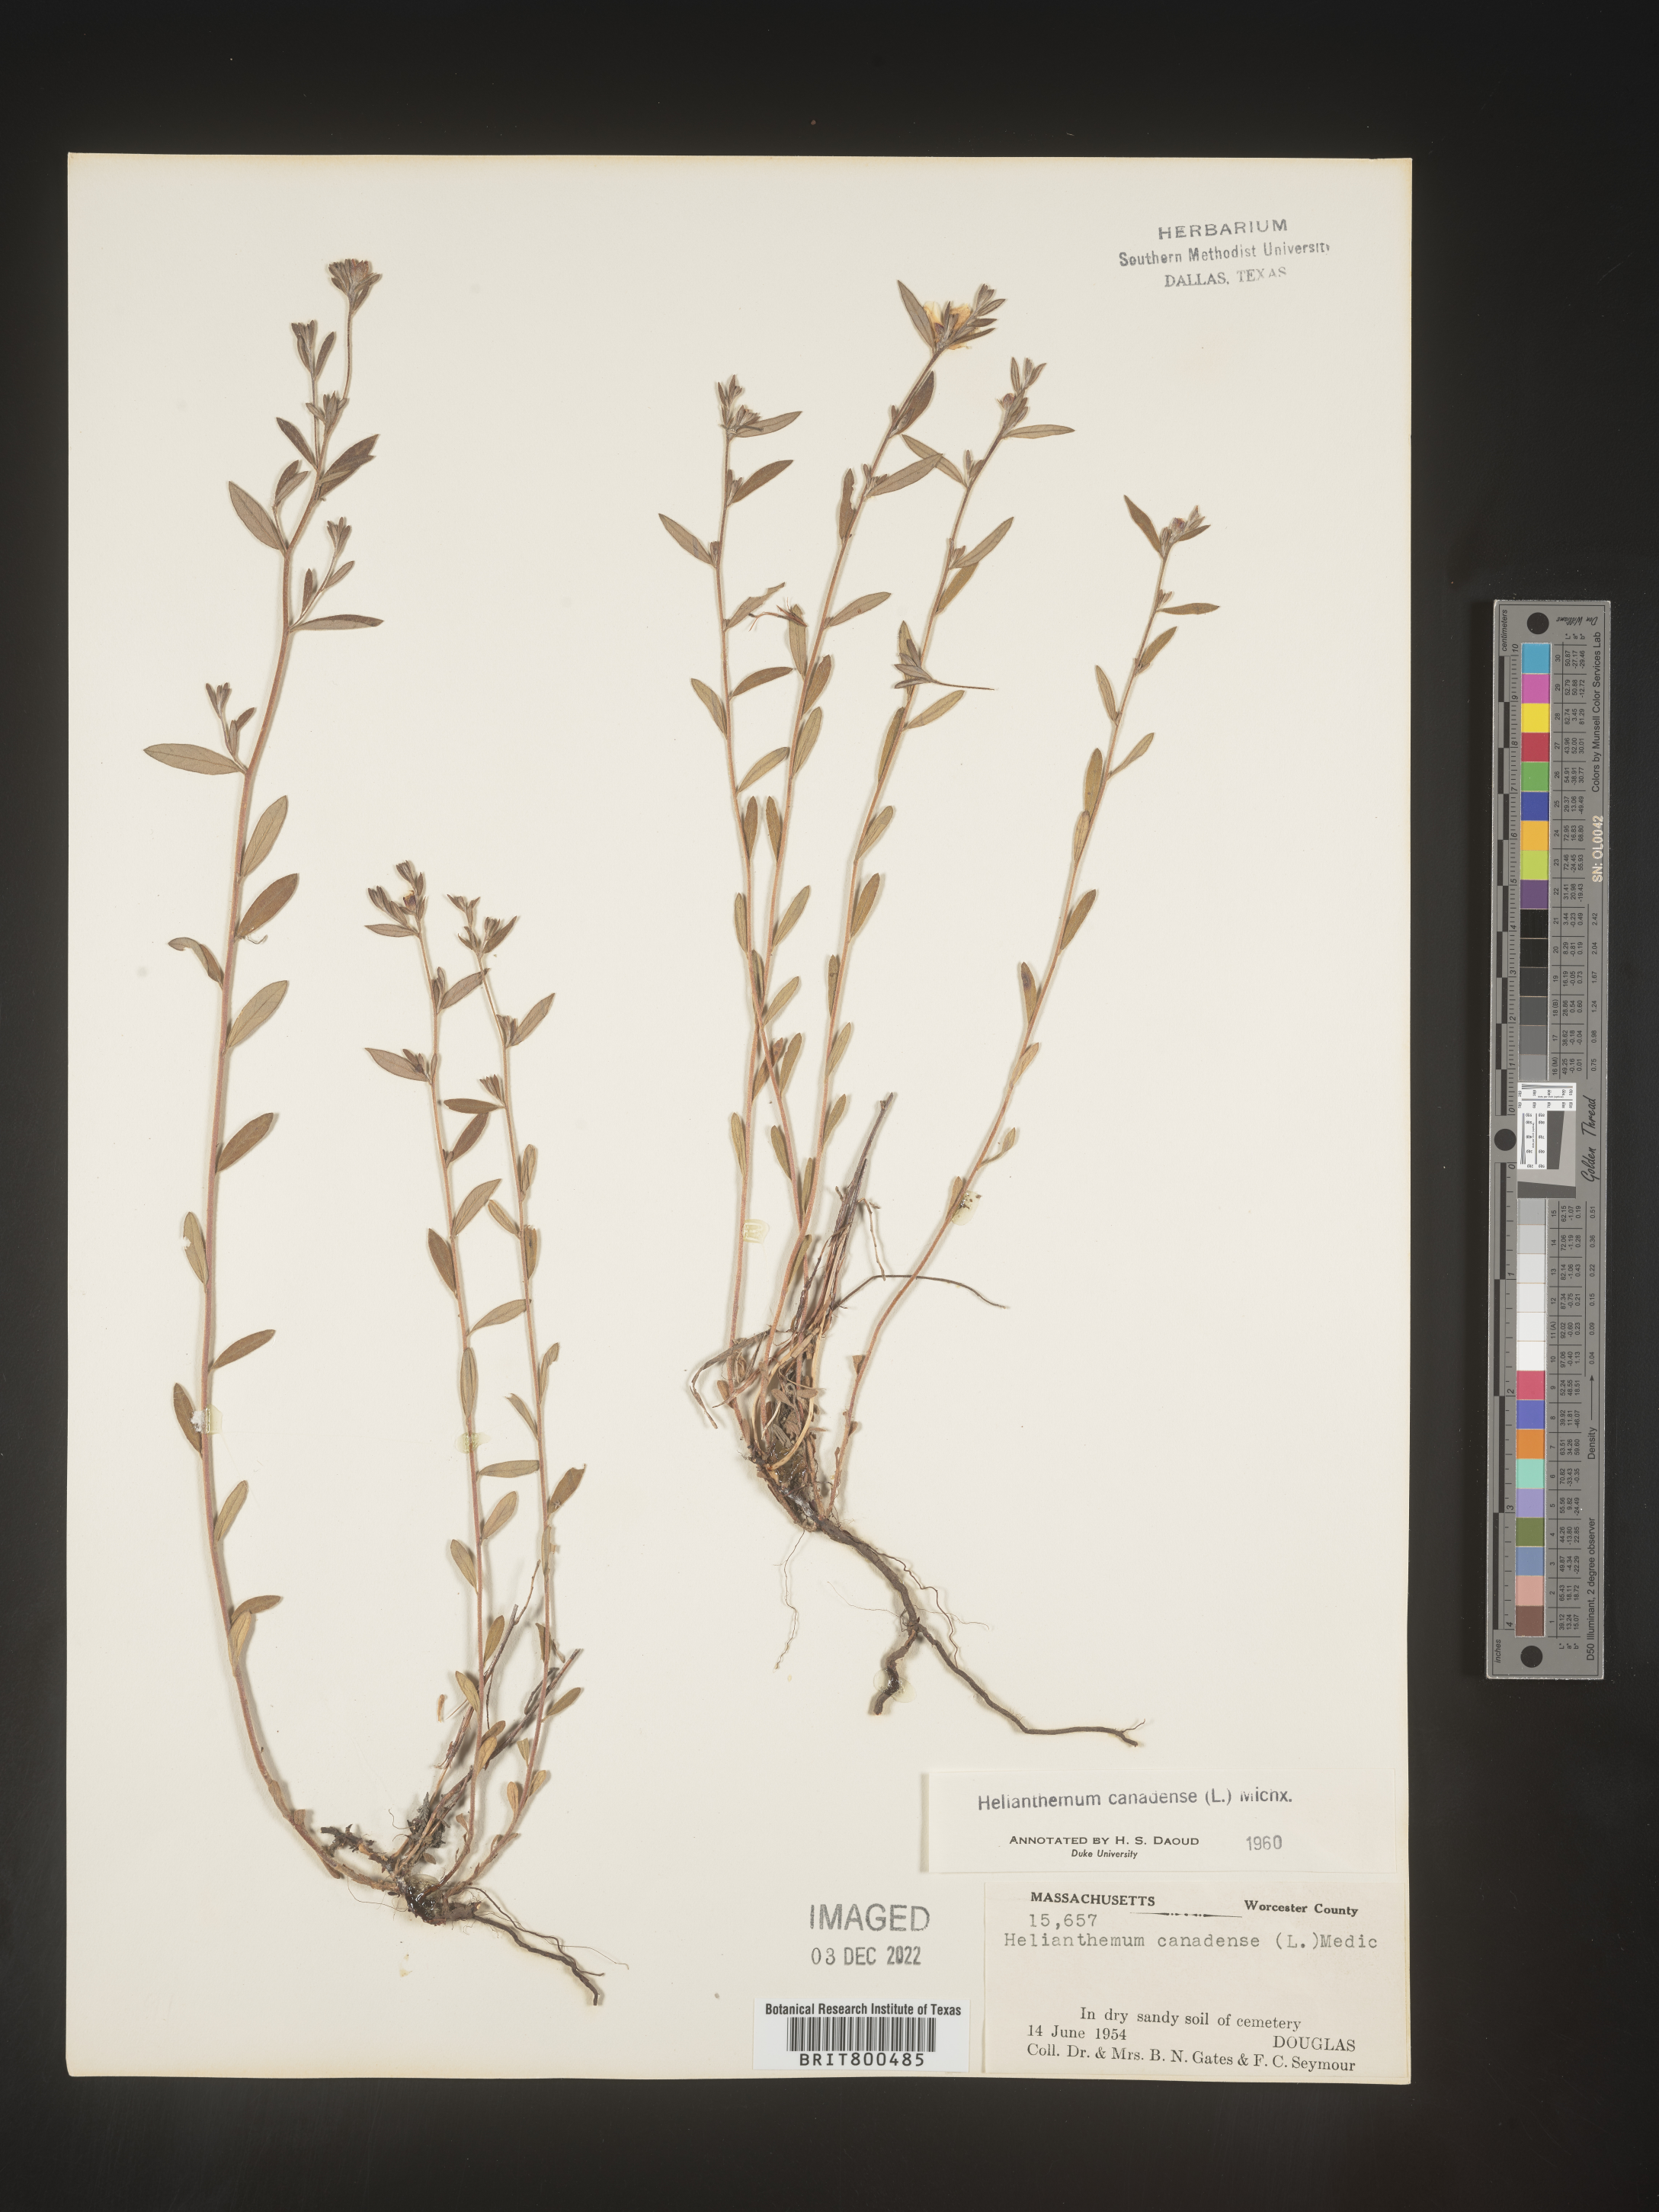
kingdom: Plantae
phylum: Tracheophyta
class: Magnoliopsida
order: Malvales
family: Cistaceae
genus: Crocanthemum
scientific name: Crocanthemum canadense
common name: Canada frostweed
